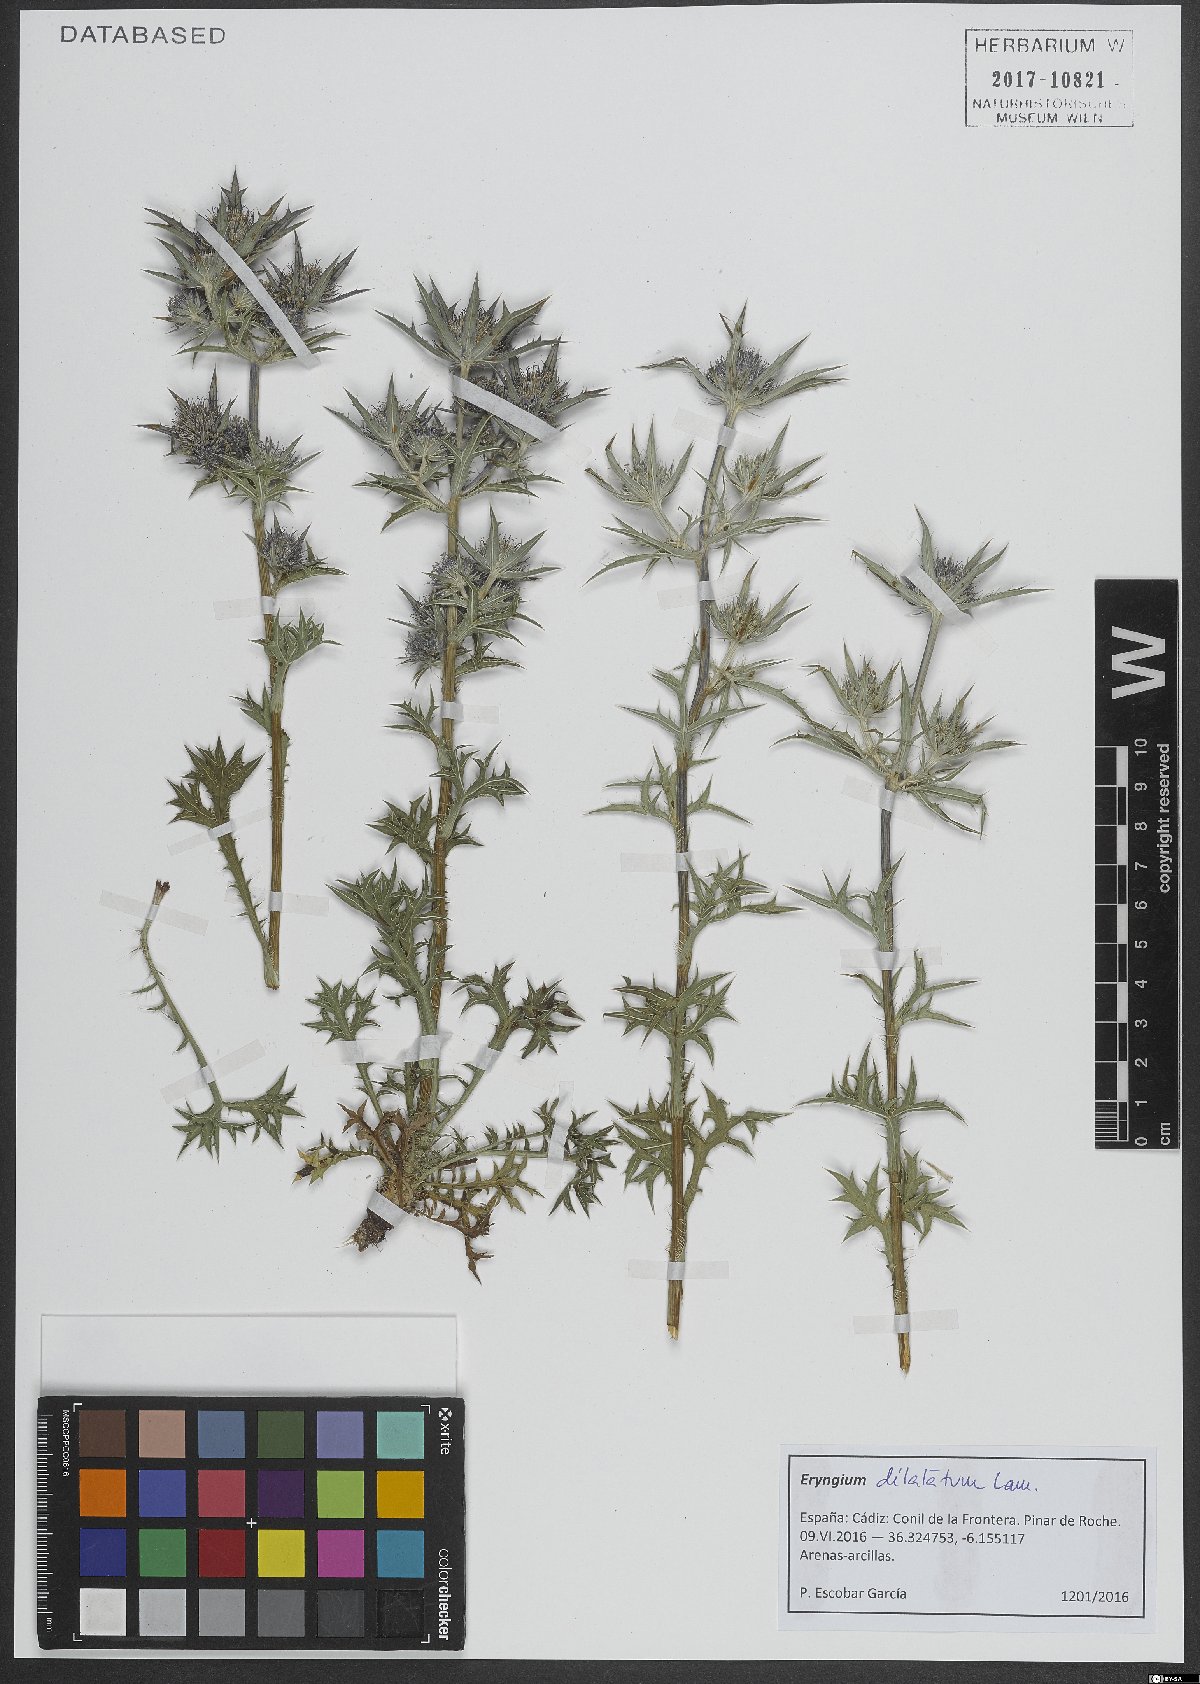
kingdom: Plantae
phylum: Tracheophyta
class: Magnoliopsida
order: Apiales
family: Apiaceae
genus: Eryngium
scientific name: Eryngium dilatatum
